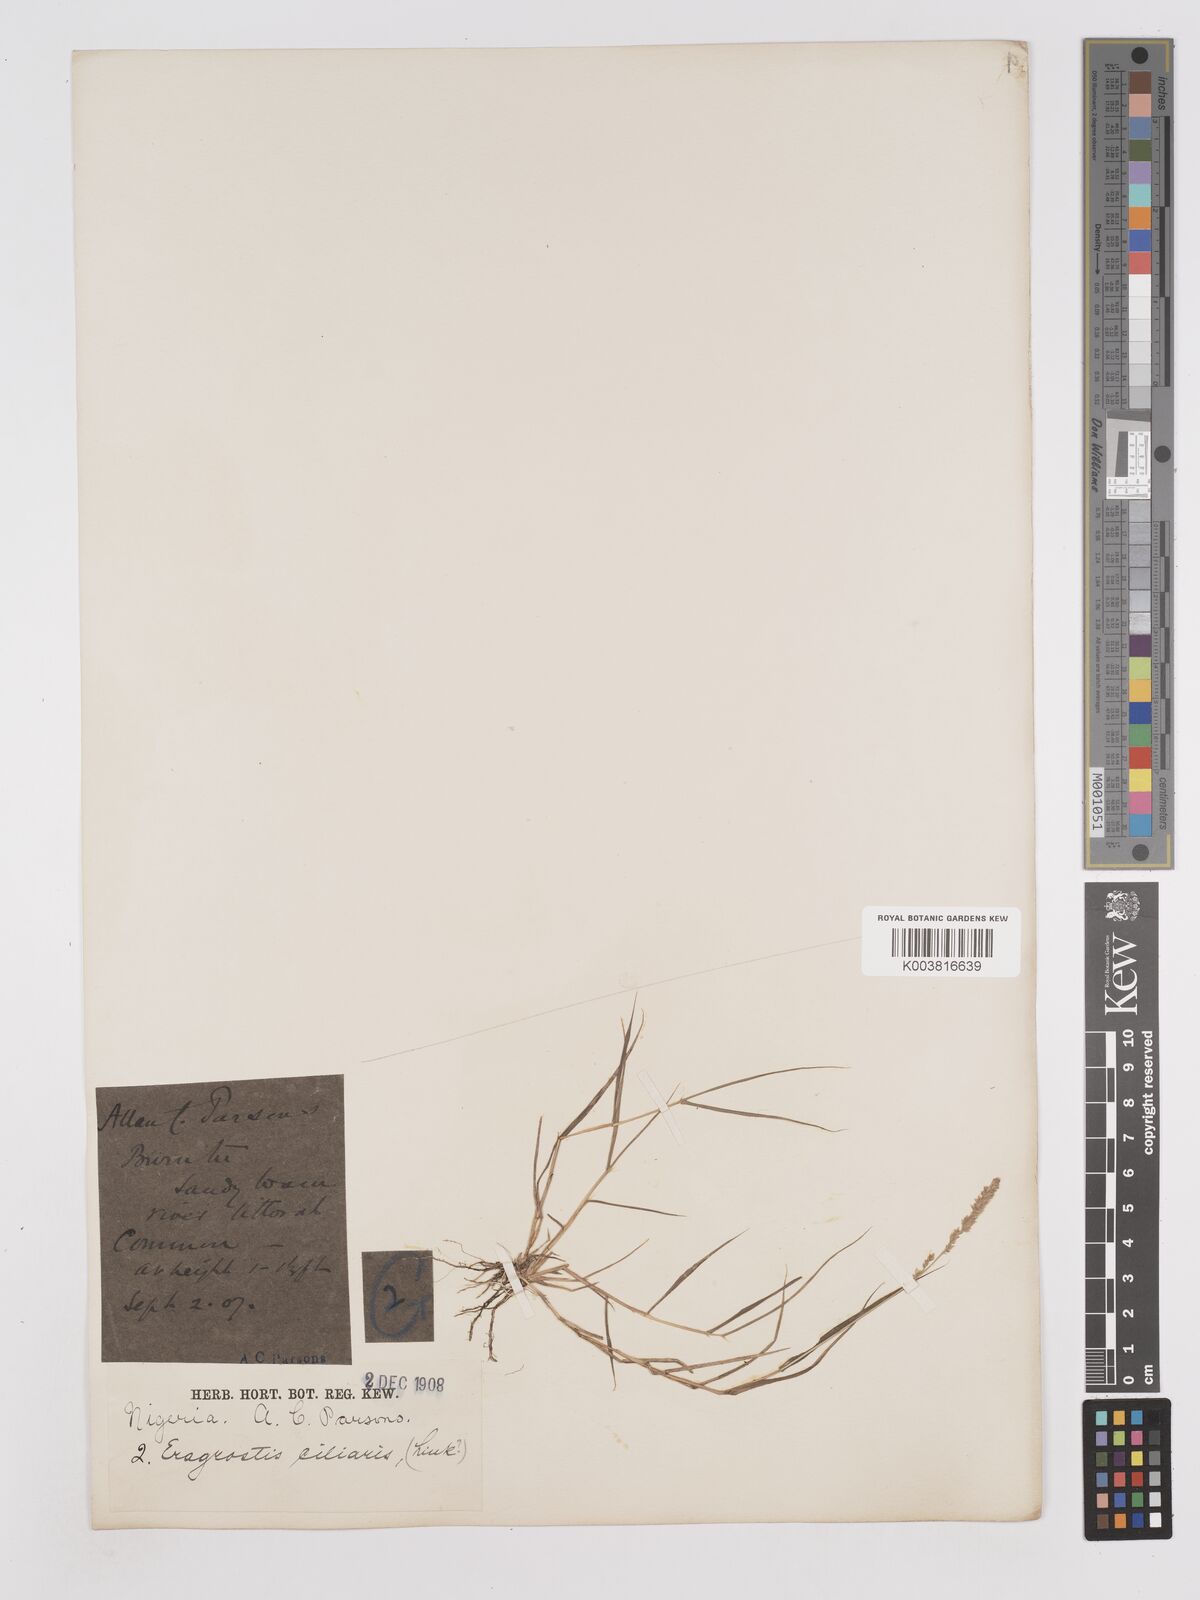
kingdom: Plantae
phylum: Tracheophyta
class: Liliopsida
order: Poales
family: Poaceae
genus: Eragrostis
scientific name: Eragrostis ciliaris
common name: Gophertail lovegrass
